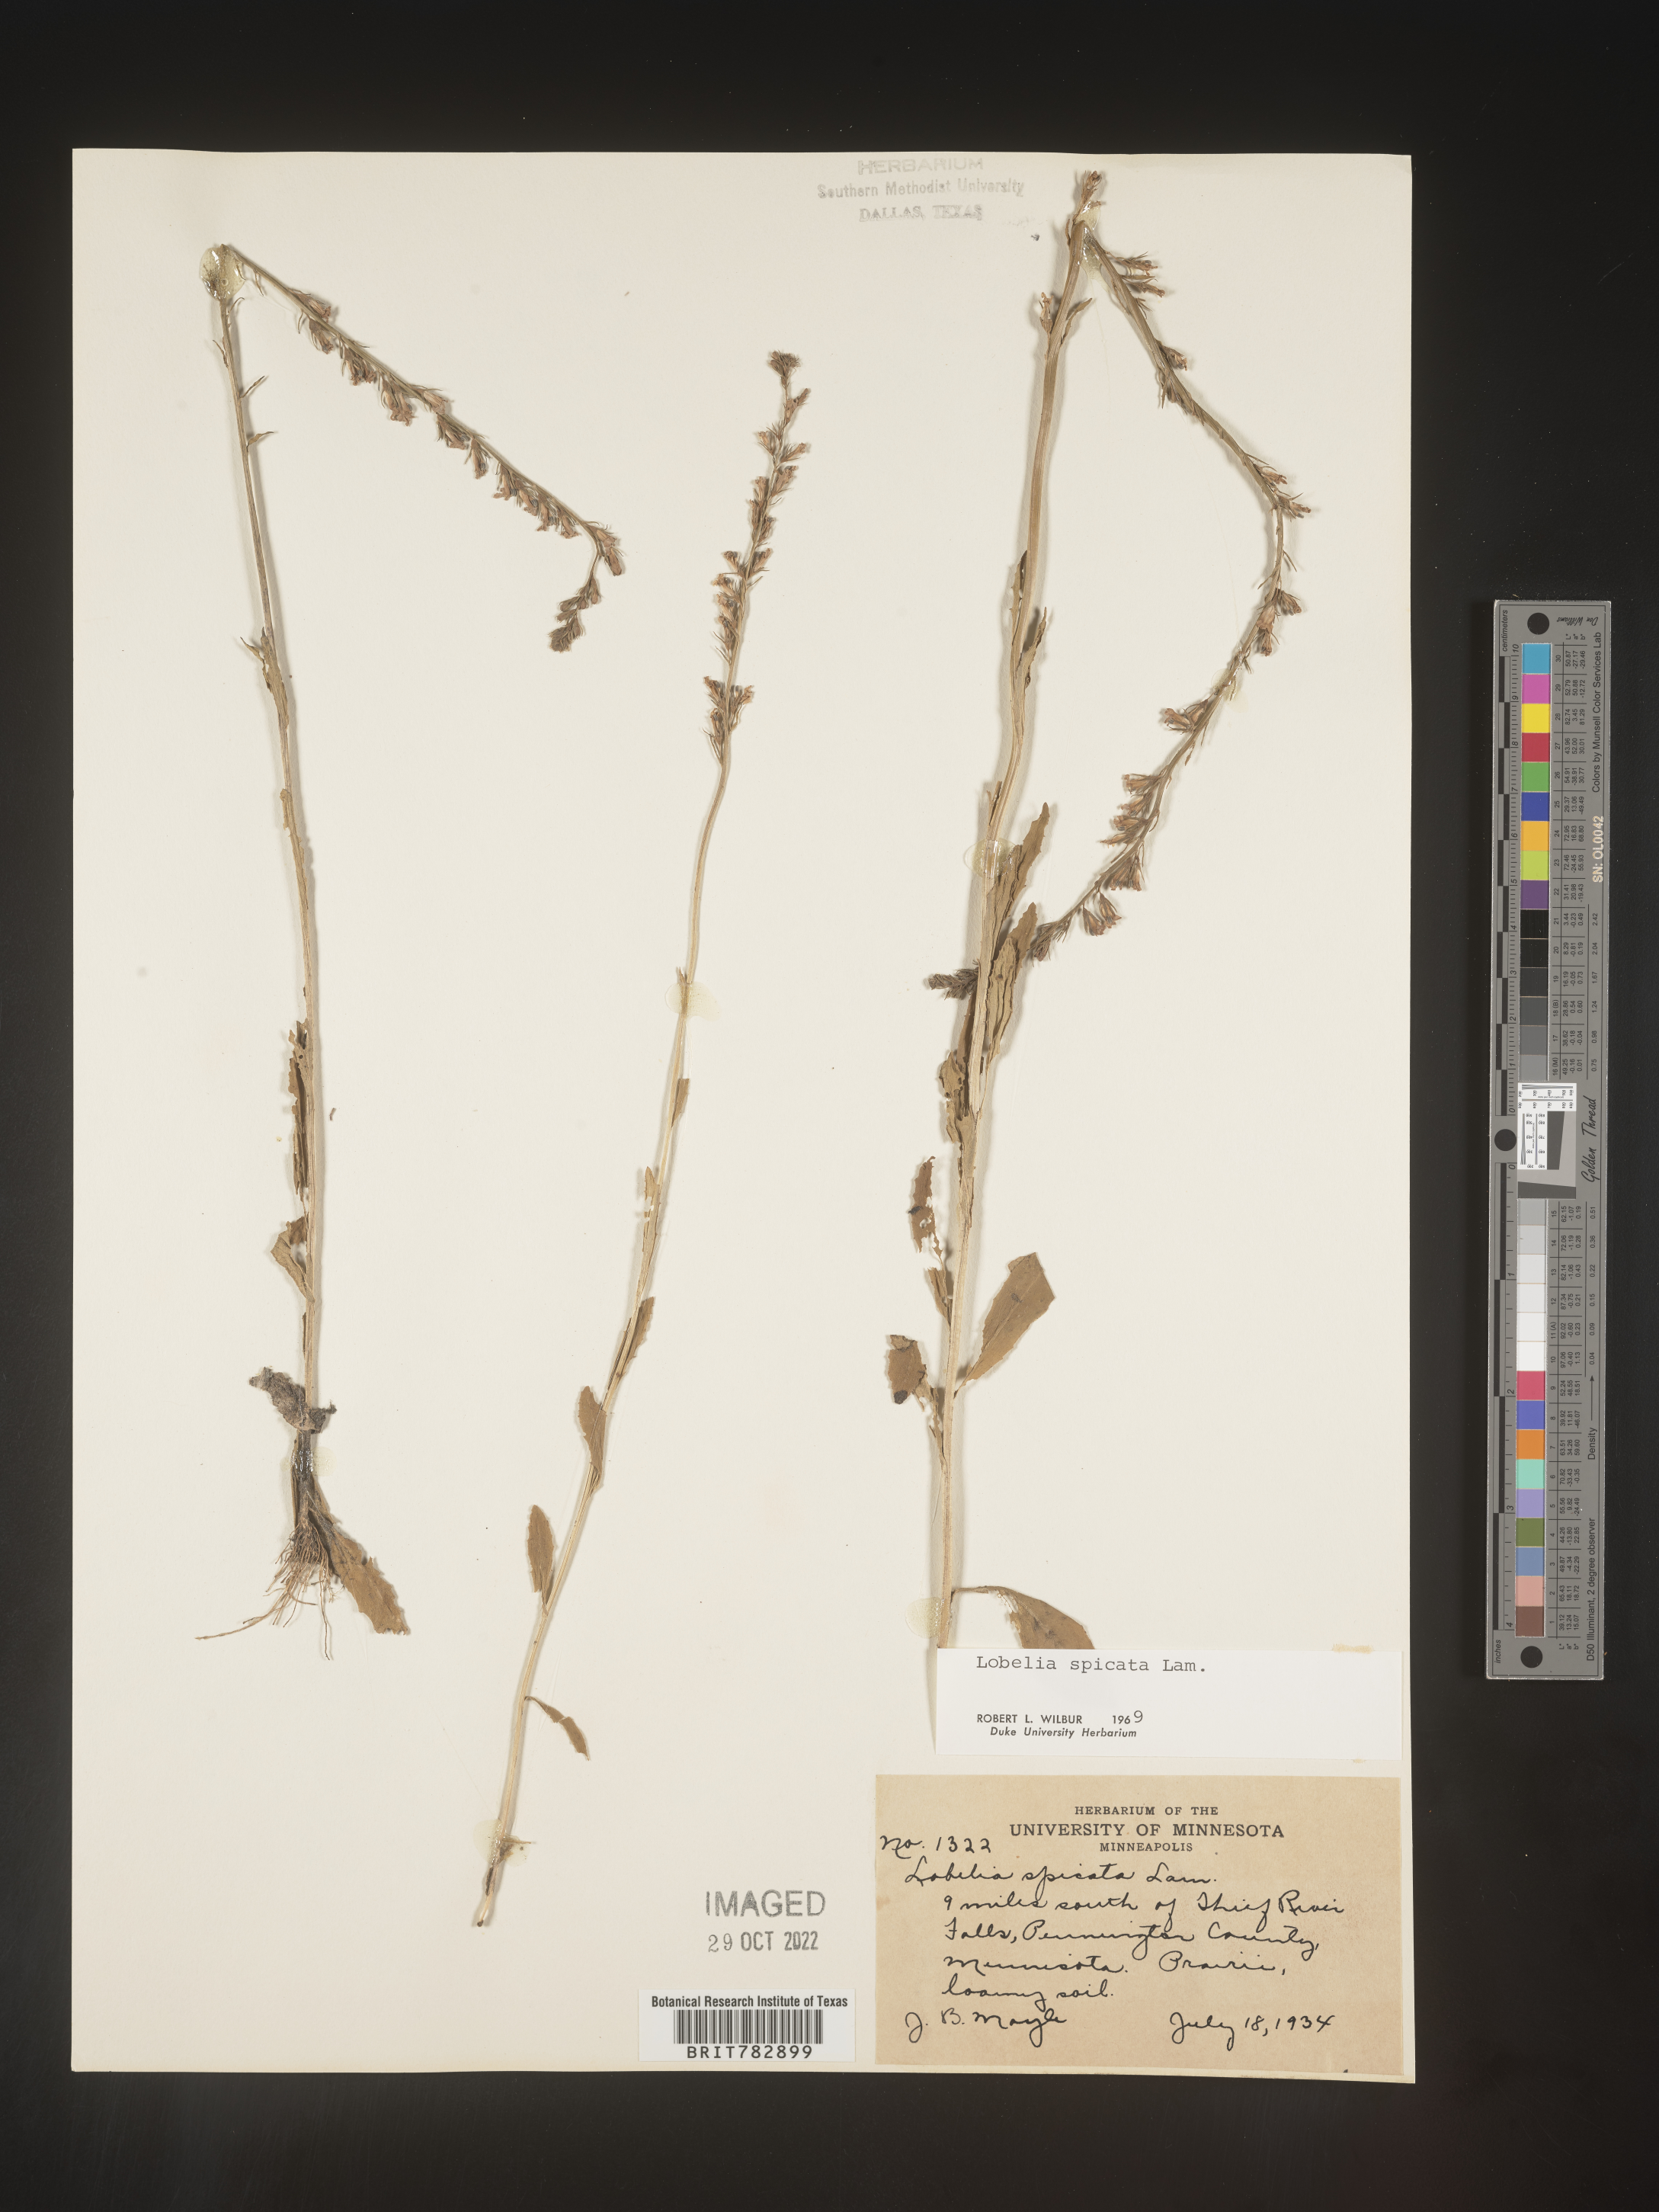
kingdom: Plantae
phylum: Tracheophyta
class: Magnoliopsida
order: Asterales
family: Campanulaceae
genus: Lobelia
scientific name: Lobelia spicata
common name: Pale-spike lobelia
